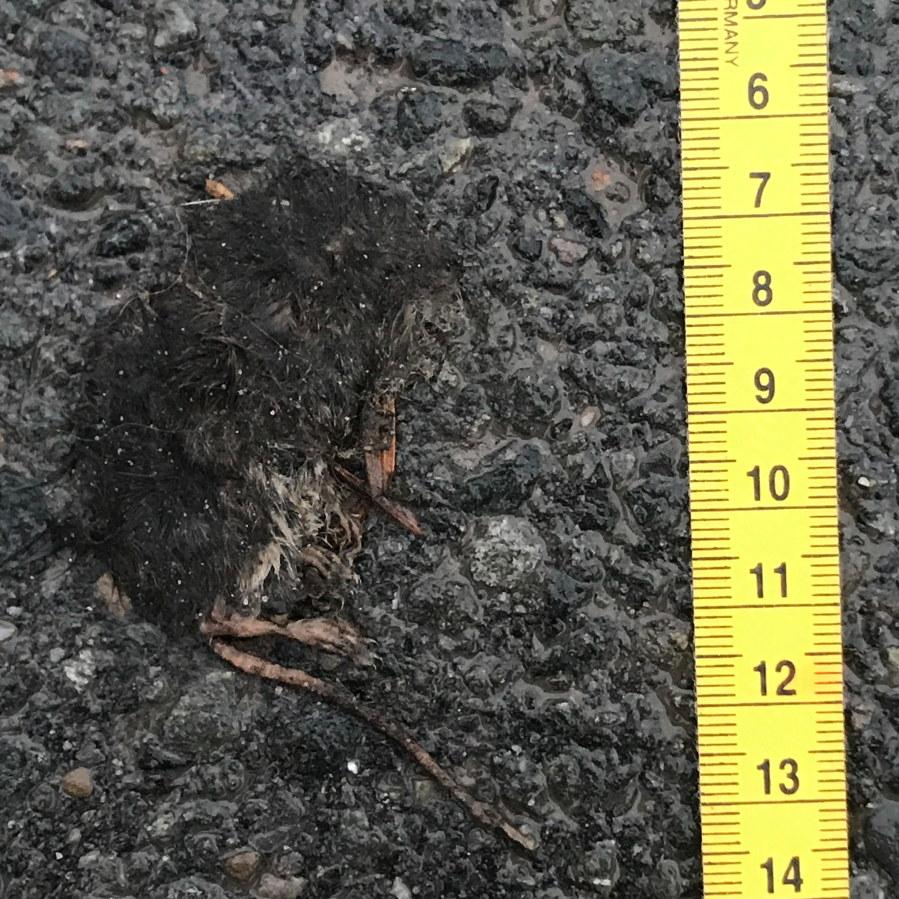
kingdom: Animalia
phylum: Chordata
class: Mammalia
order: Soricomorpha
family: Soricidae
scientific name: Soricidae
